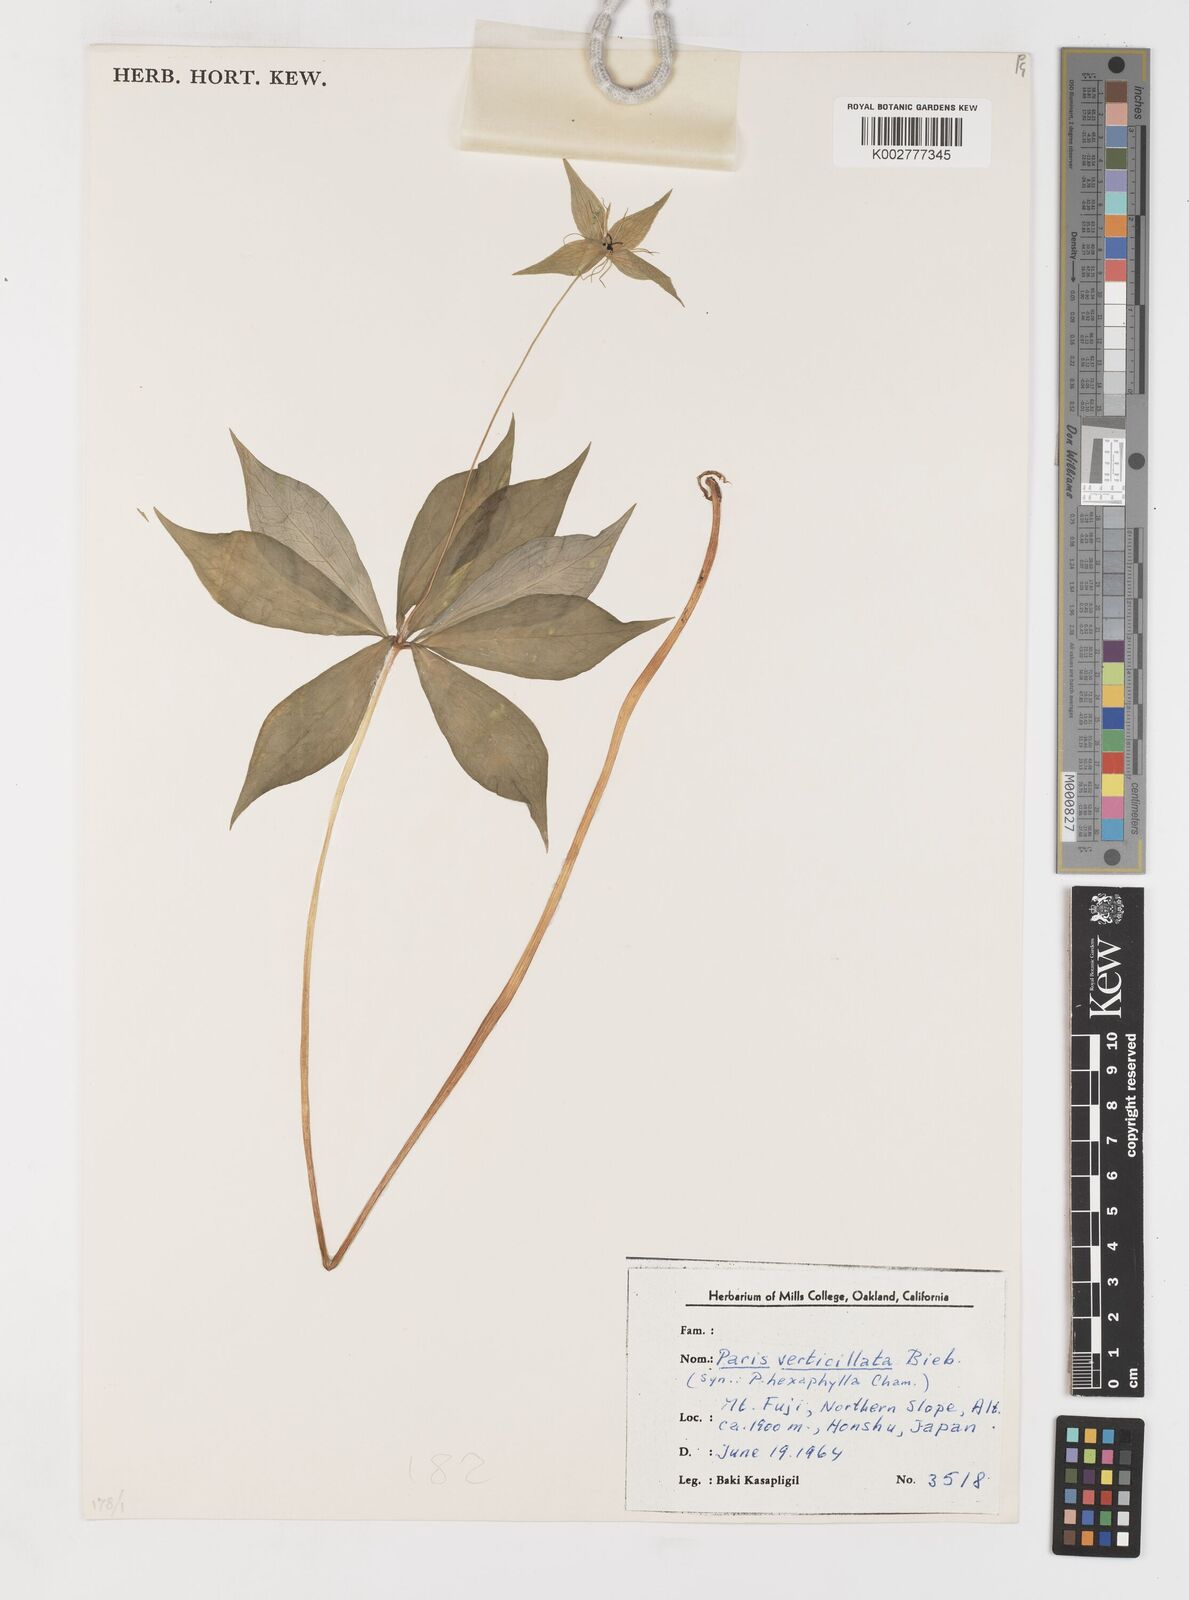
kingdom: Plantae
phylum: Tracheophyta
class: Liliopsida
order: Liliales
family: Melanthiaceae
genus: Paris
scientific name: Paris verticillata
